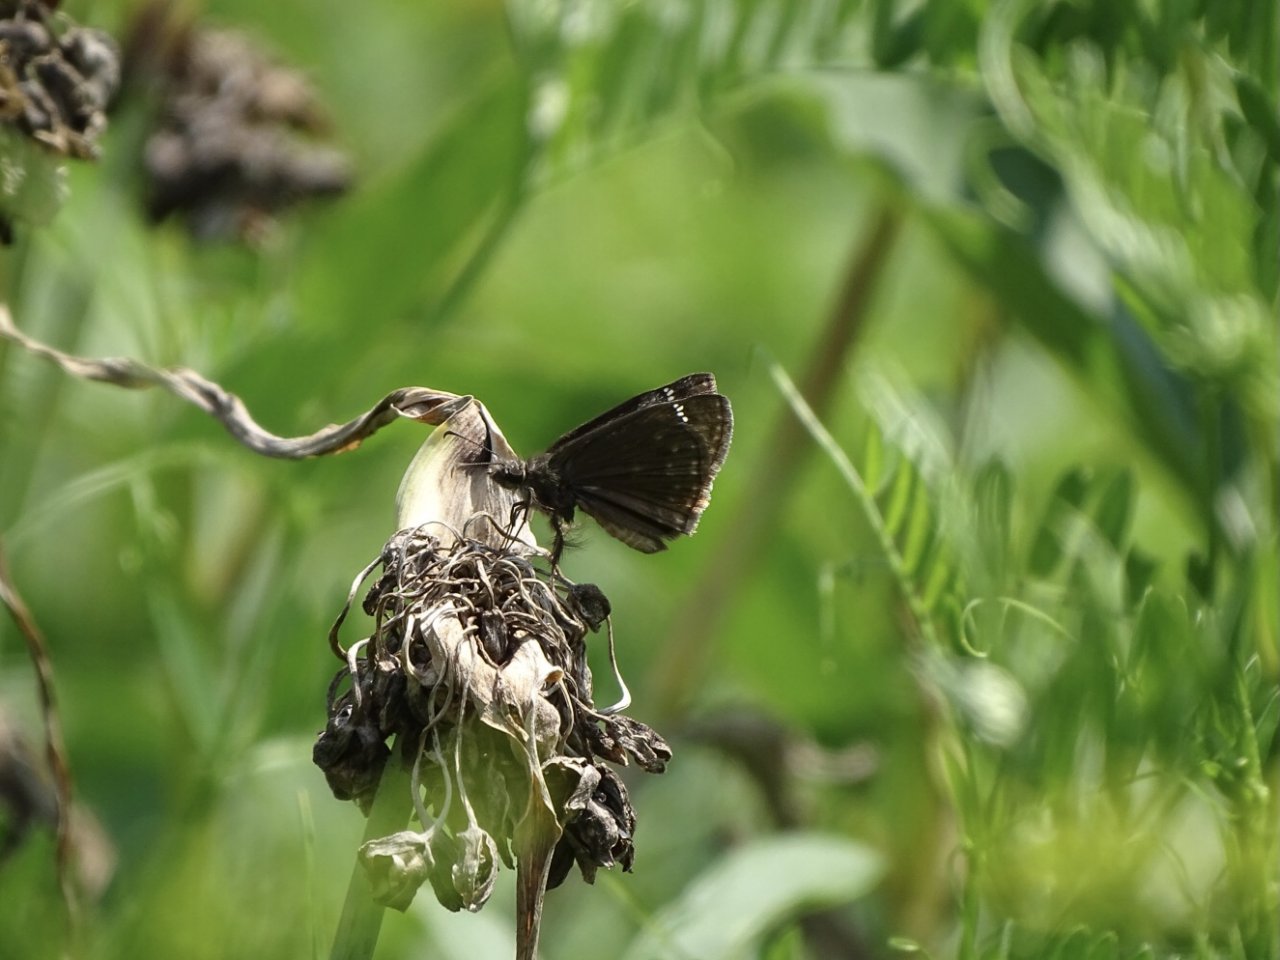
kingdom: Animalia
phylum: Arthropoda
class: Insecta
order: Lepidoptera
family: Hesperiidae
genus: Gesta
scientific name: Gesta
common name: Wild Indigo Duskywing
